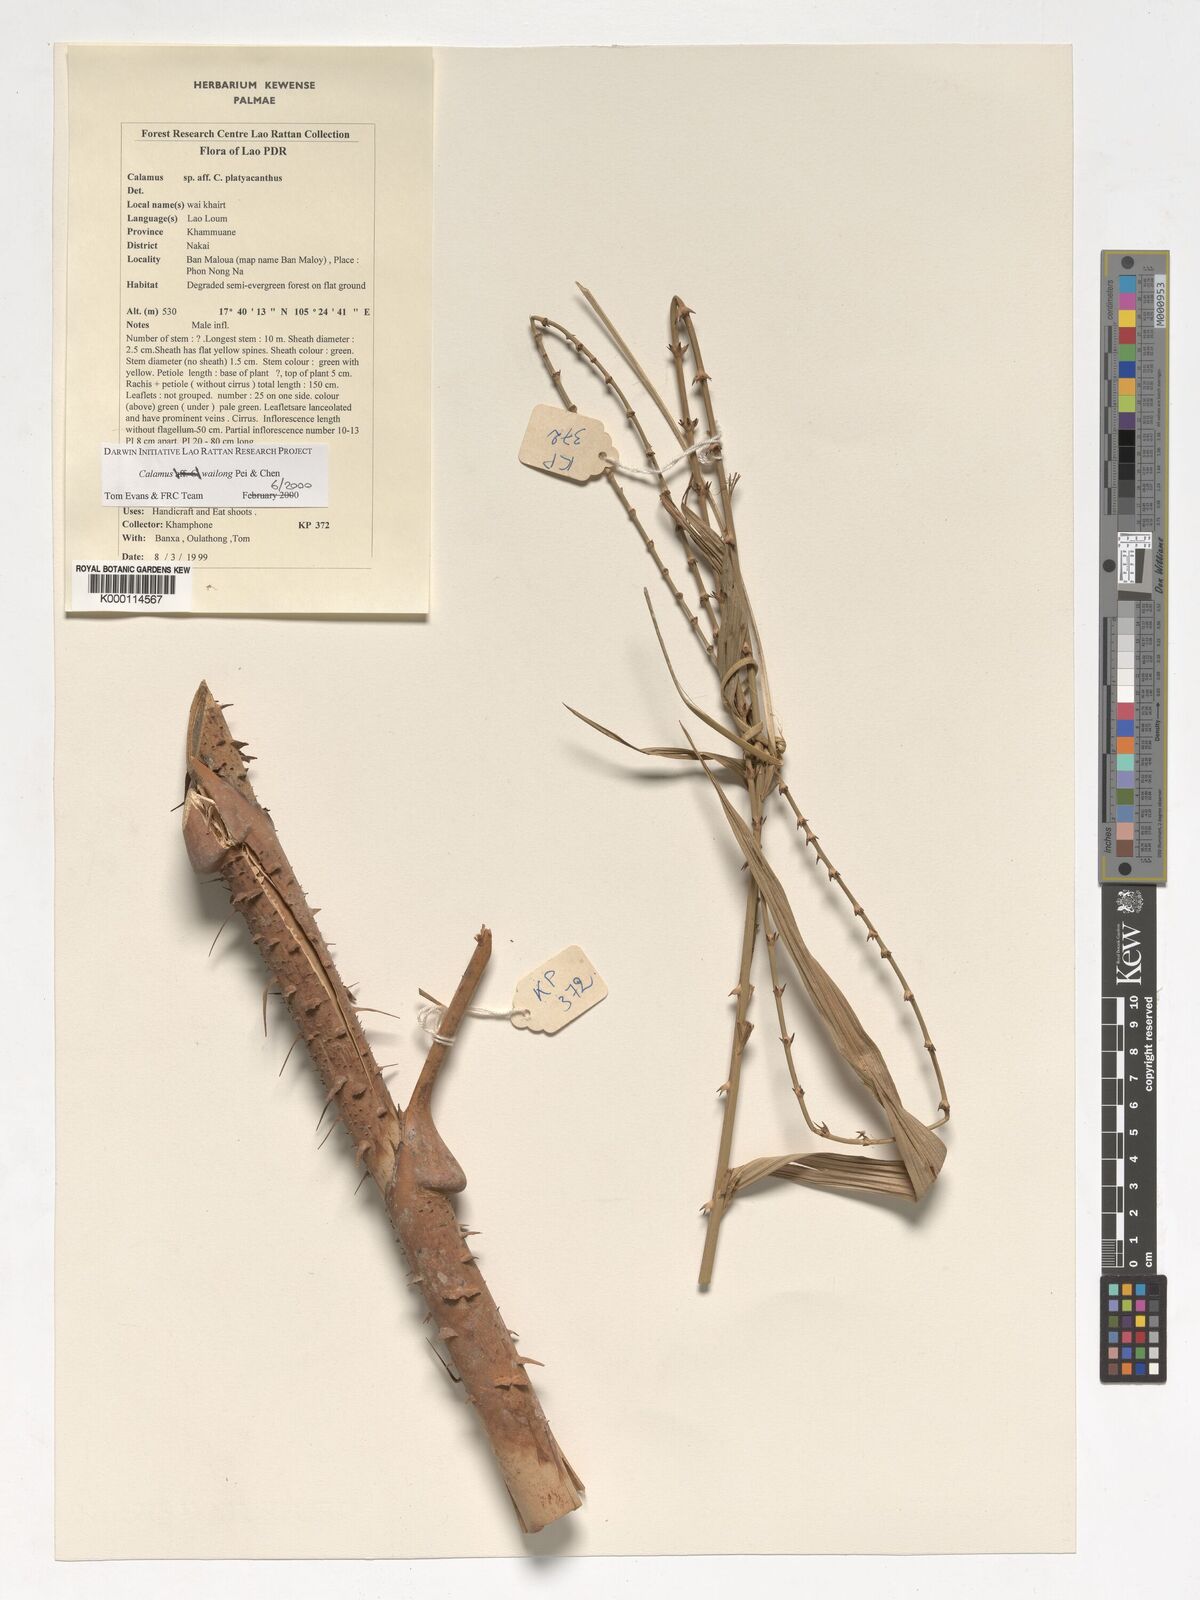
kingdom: Plantae
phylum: Tracheophyta
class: Liliopsida
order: Arecales
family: Arecaceae
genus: Calamus
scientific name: Calamus inermis
